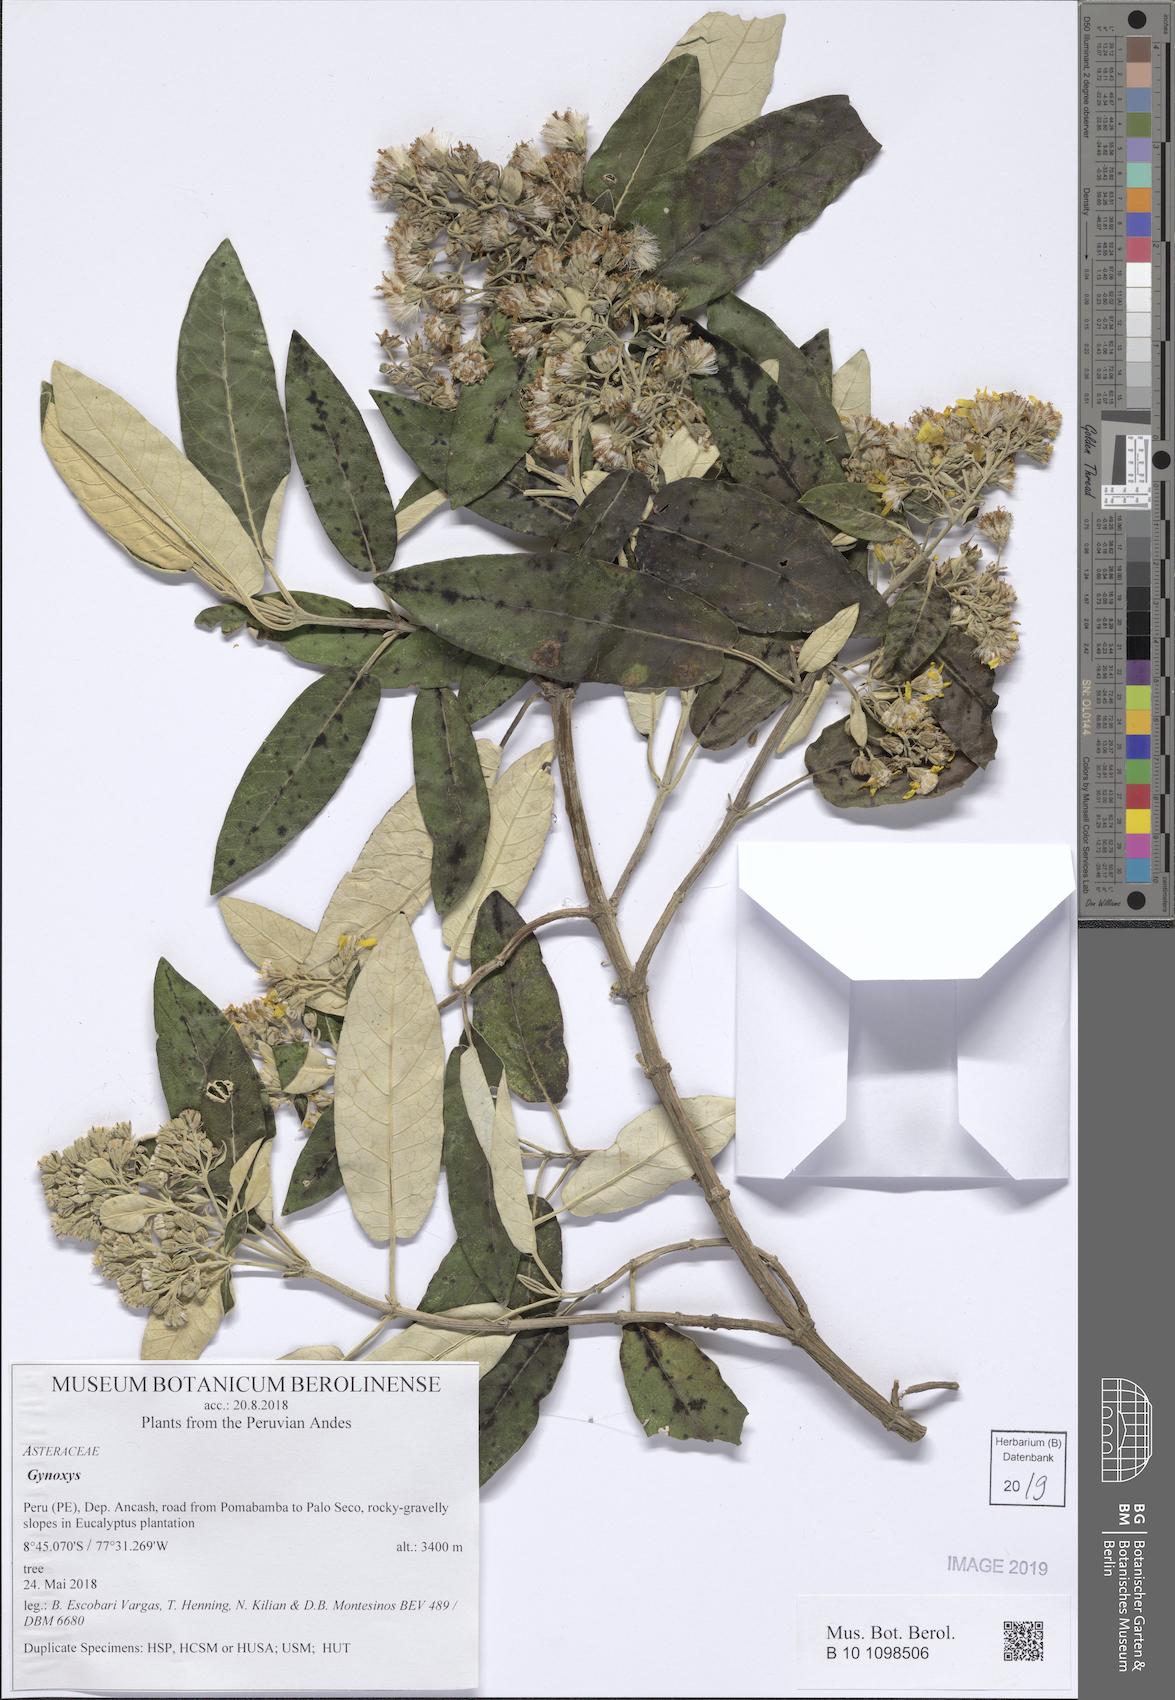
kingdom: Plantae
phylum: Tracheophyta
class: Magnoliopsida
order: Asterales
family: Asteraceae
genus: Gynoxys
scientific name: Gynoxys
